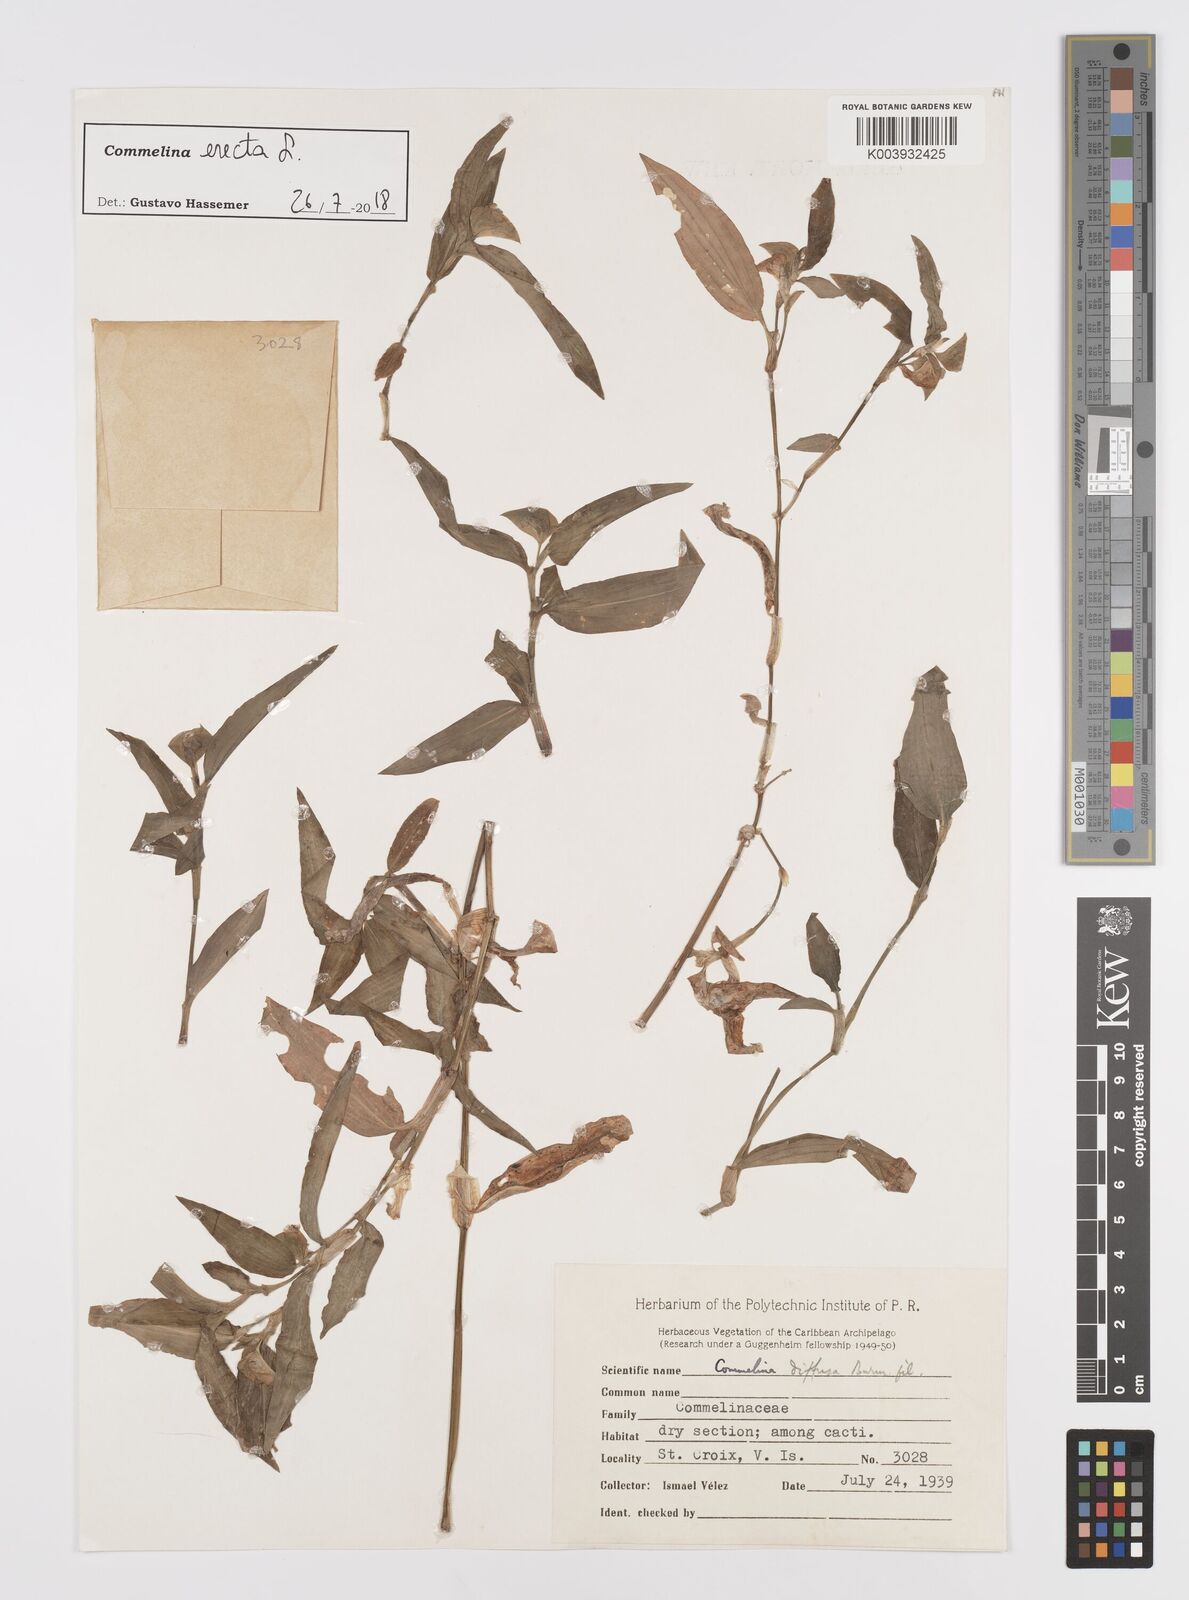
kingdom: Plantae
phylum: Tracheophyta
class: Liliopsida
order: Commelinales
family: Commelinaceae
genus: Commelina
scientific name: Commelina erecta
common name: Blousel blommetjie
